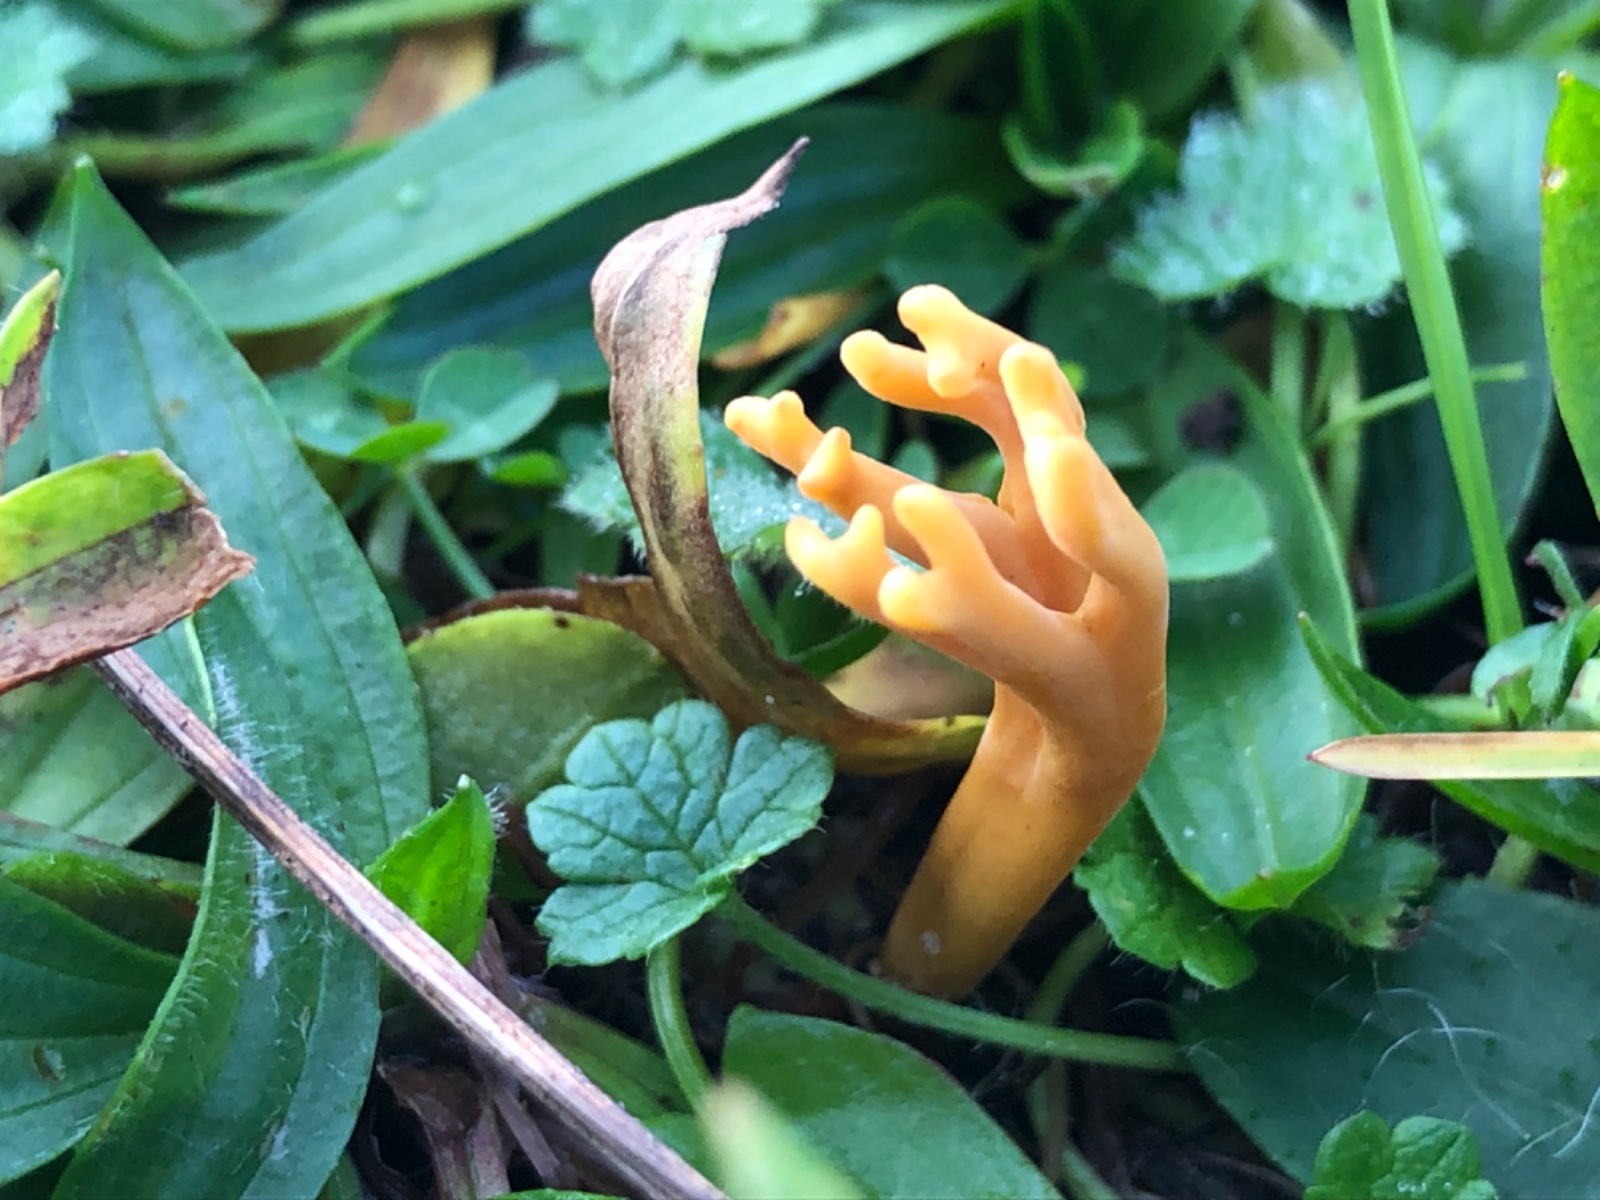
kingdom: Fungi
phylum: Basidiomycota
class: Agaricomycetes
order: Agaricales
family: Clavariaceae
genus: Clavulinopsis
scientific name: Clavulinopsis corniculata
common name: eng-køllesvamp
